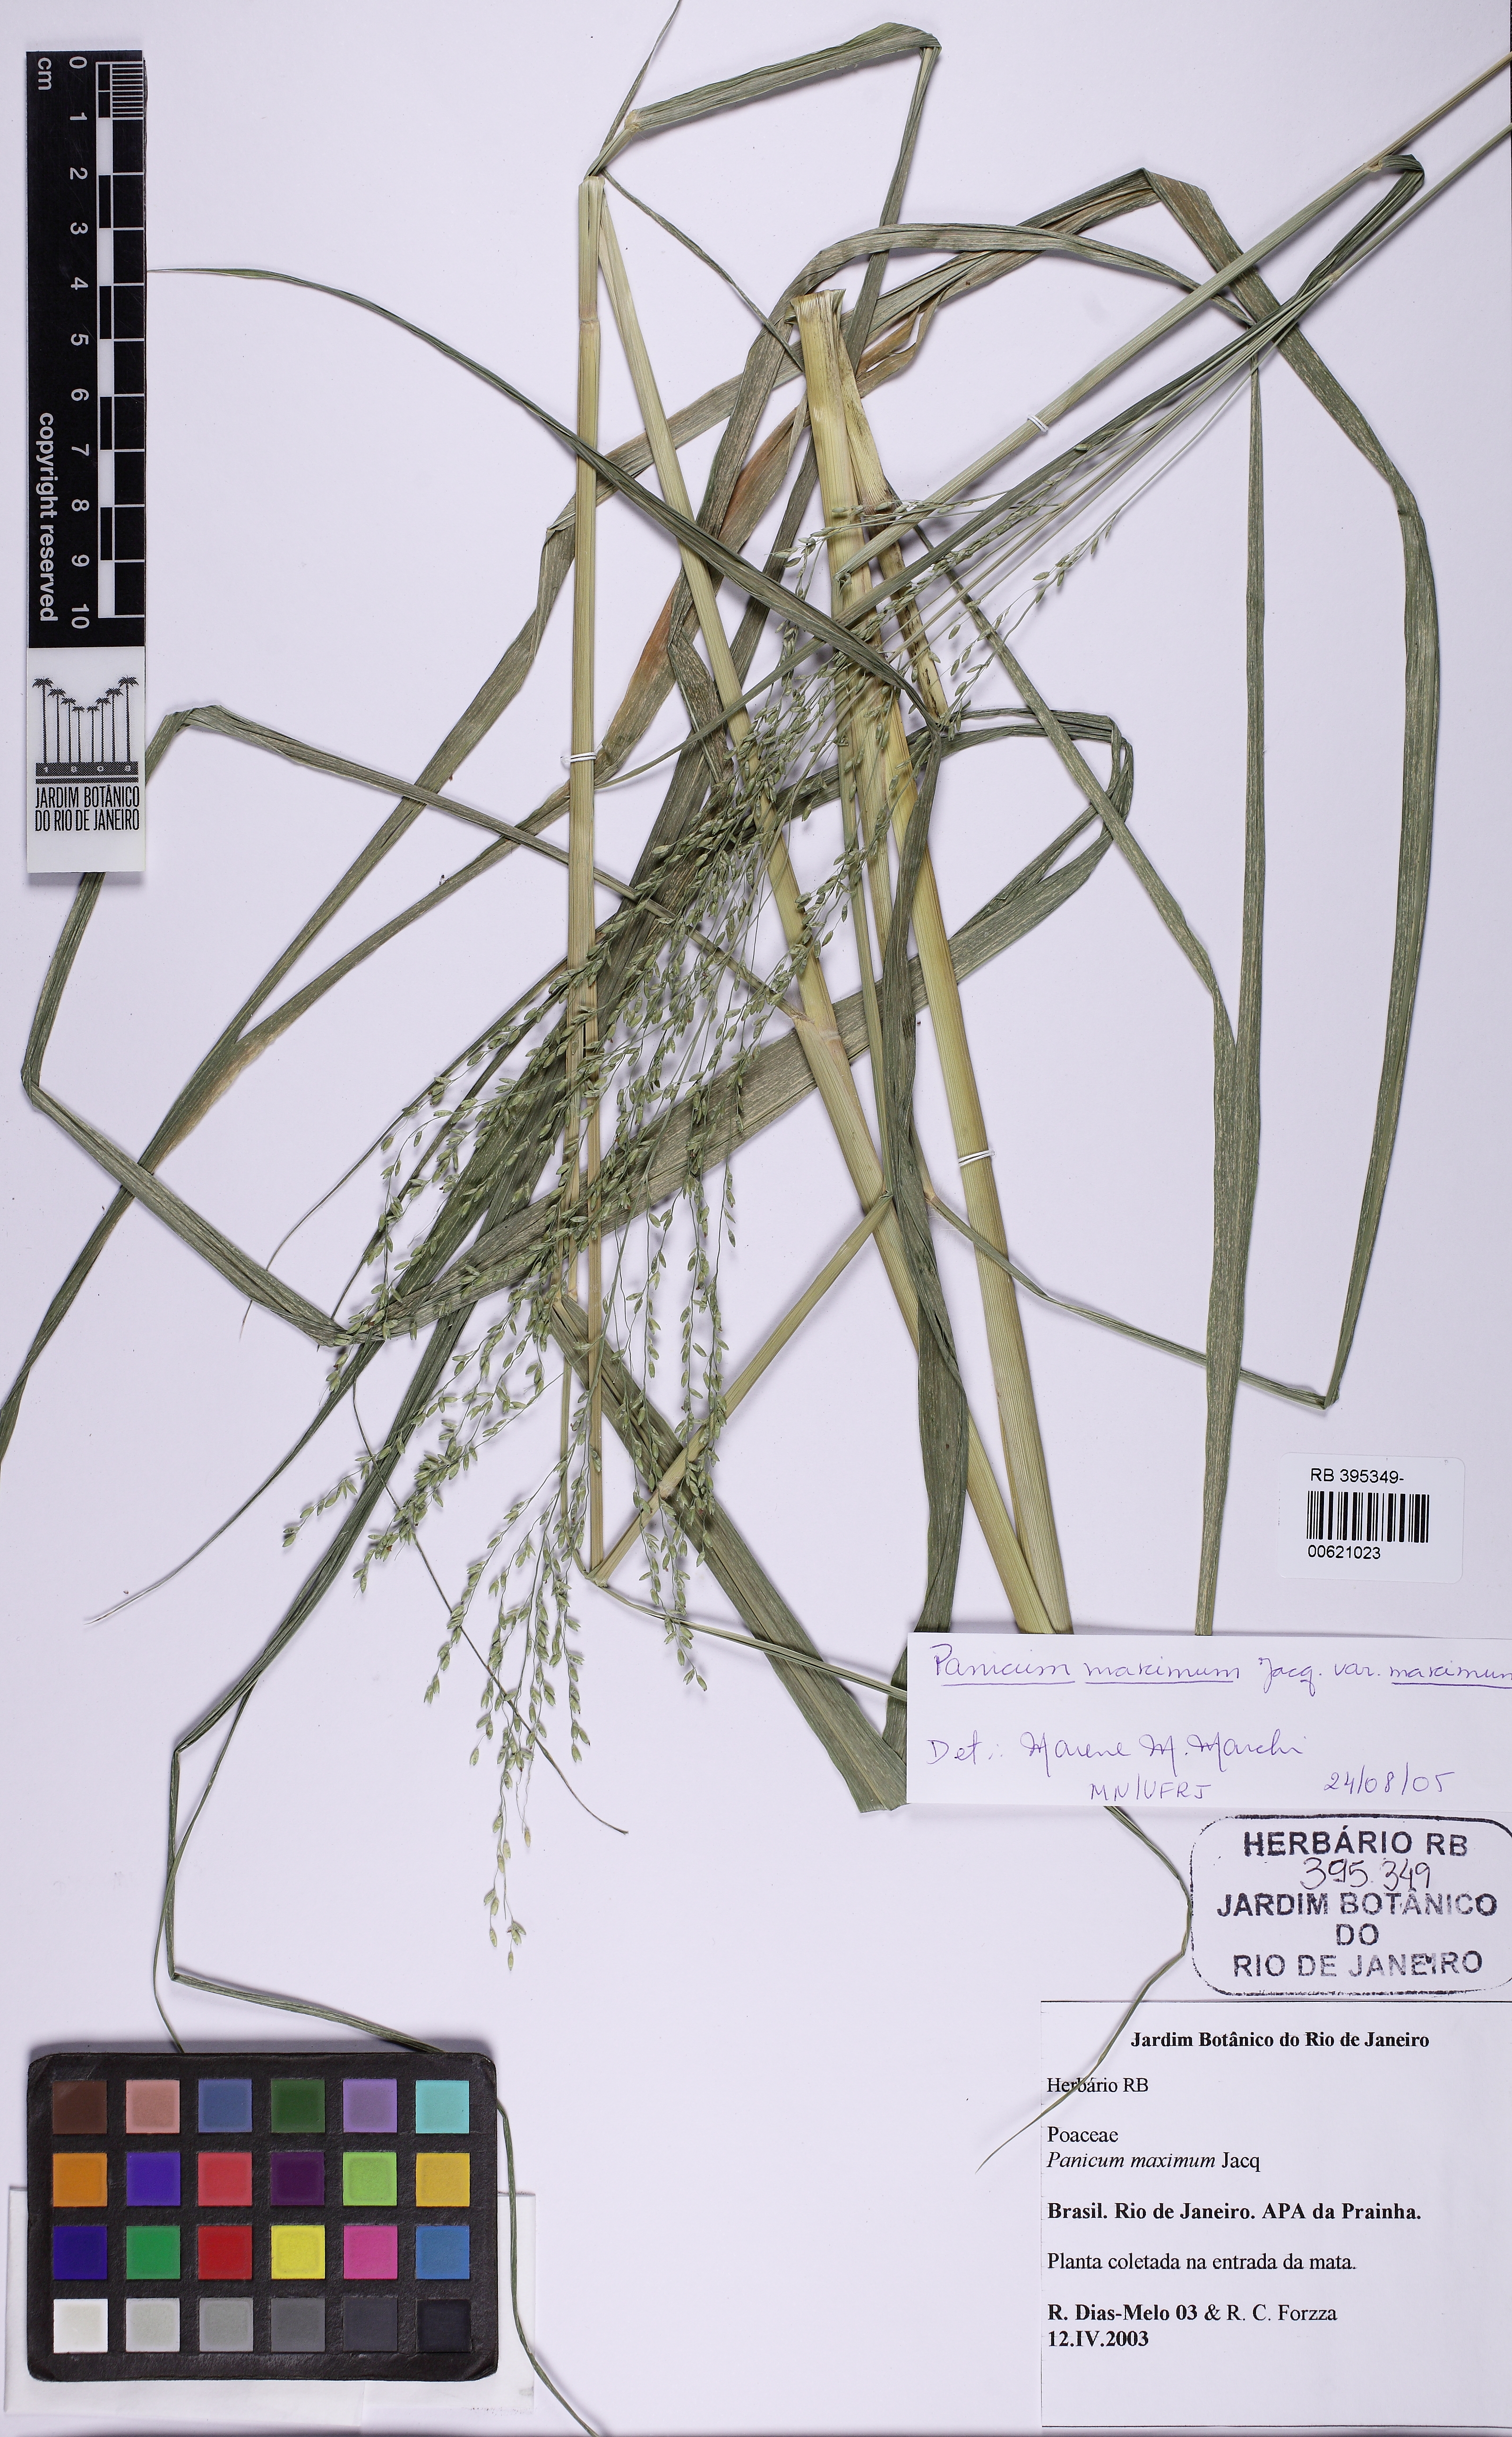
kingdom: Plantae
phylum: Tracheophyta
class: Liliopsida
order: Poales
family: Poaceae
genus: Megathyrsus
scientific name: Megathyrsus maximus
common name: Guineagrass
